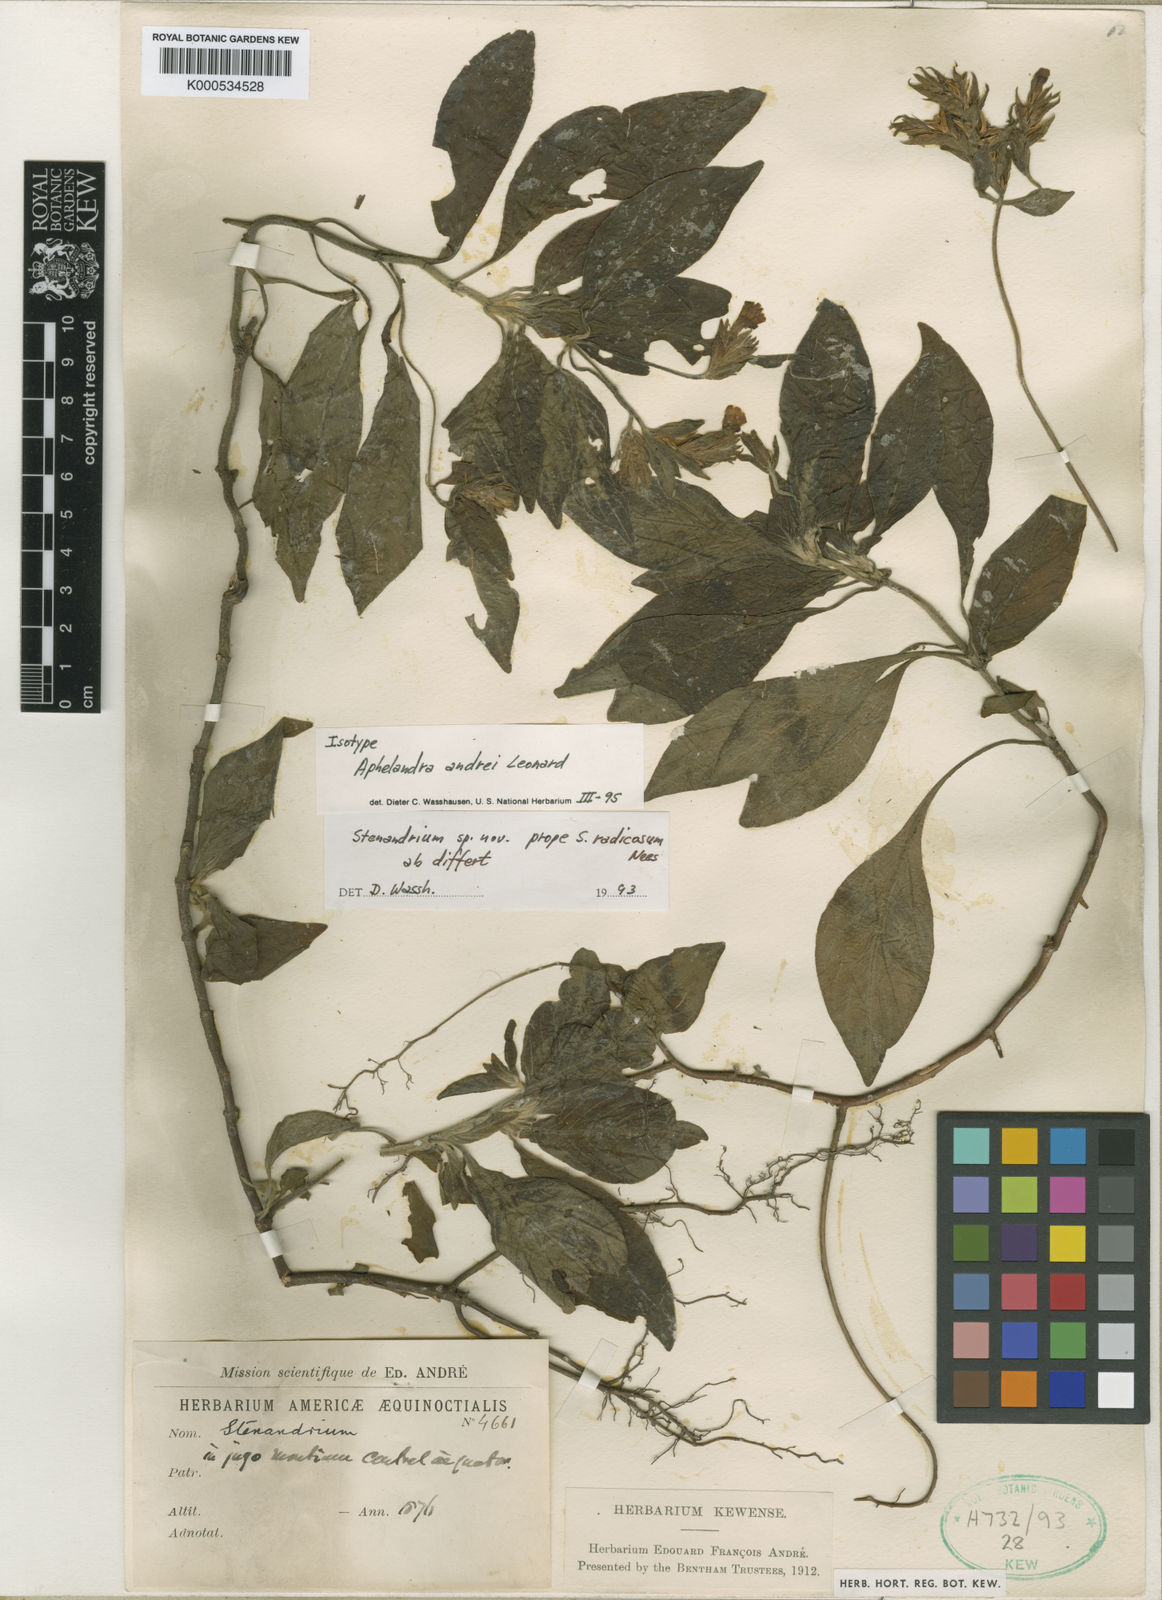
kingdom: Plantae
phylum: Tracheophyta
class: Magnoliopsida
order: Lamiales
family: Acanthaceae
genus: Stenandrium
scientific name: Stenandrium andrei
